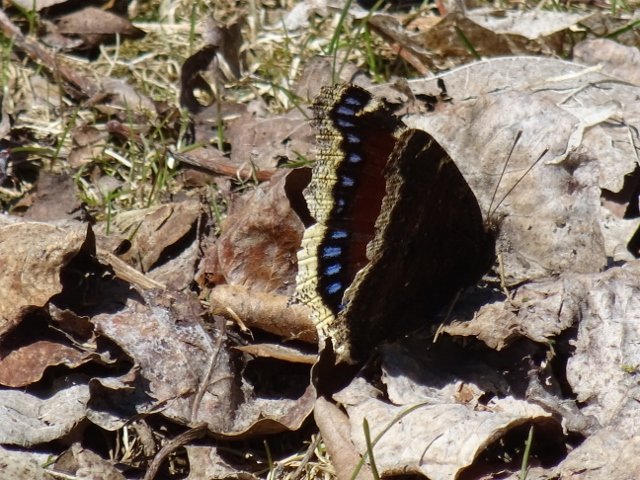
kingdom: Animalia
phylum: Arthropoda
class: Insecta
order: Lepidoptera
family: Nymphalidae
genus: Nymphalis
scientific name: Nymphalis antiopa
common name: Mourning Cloak
